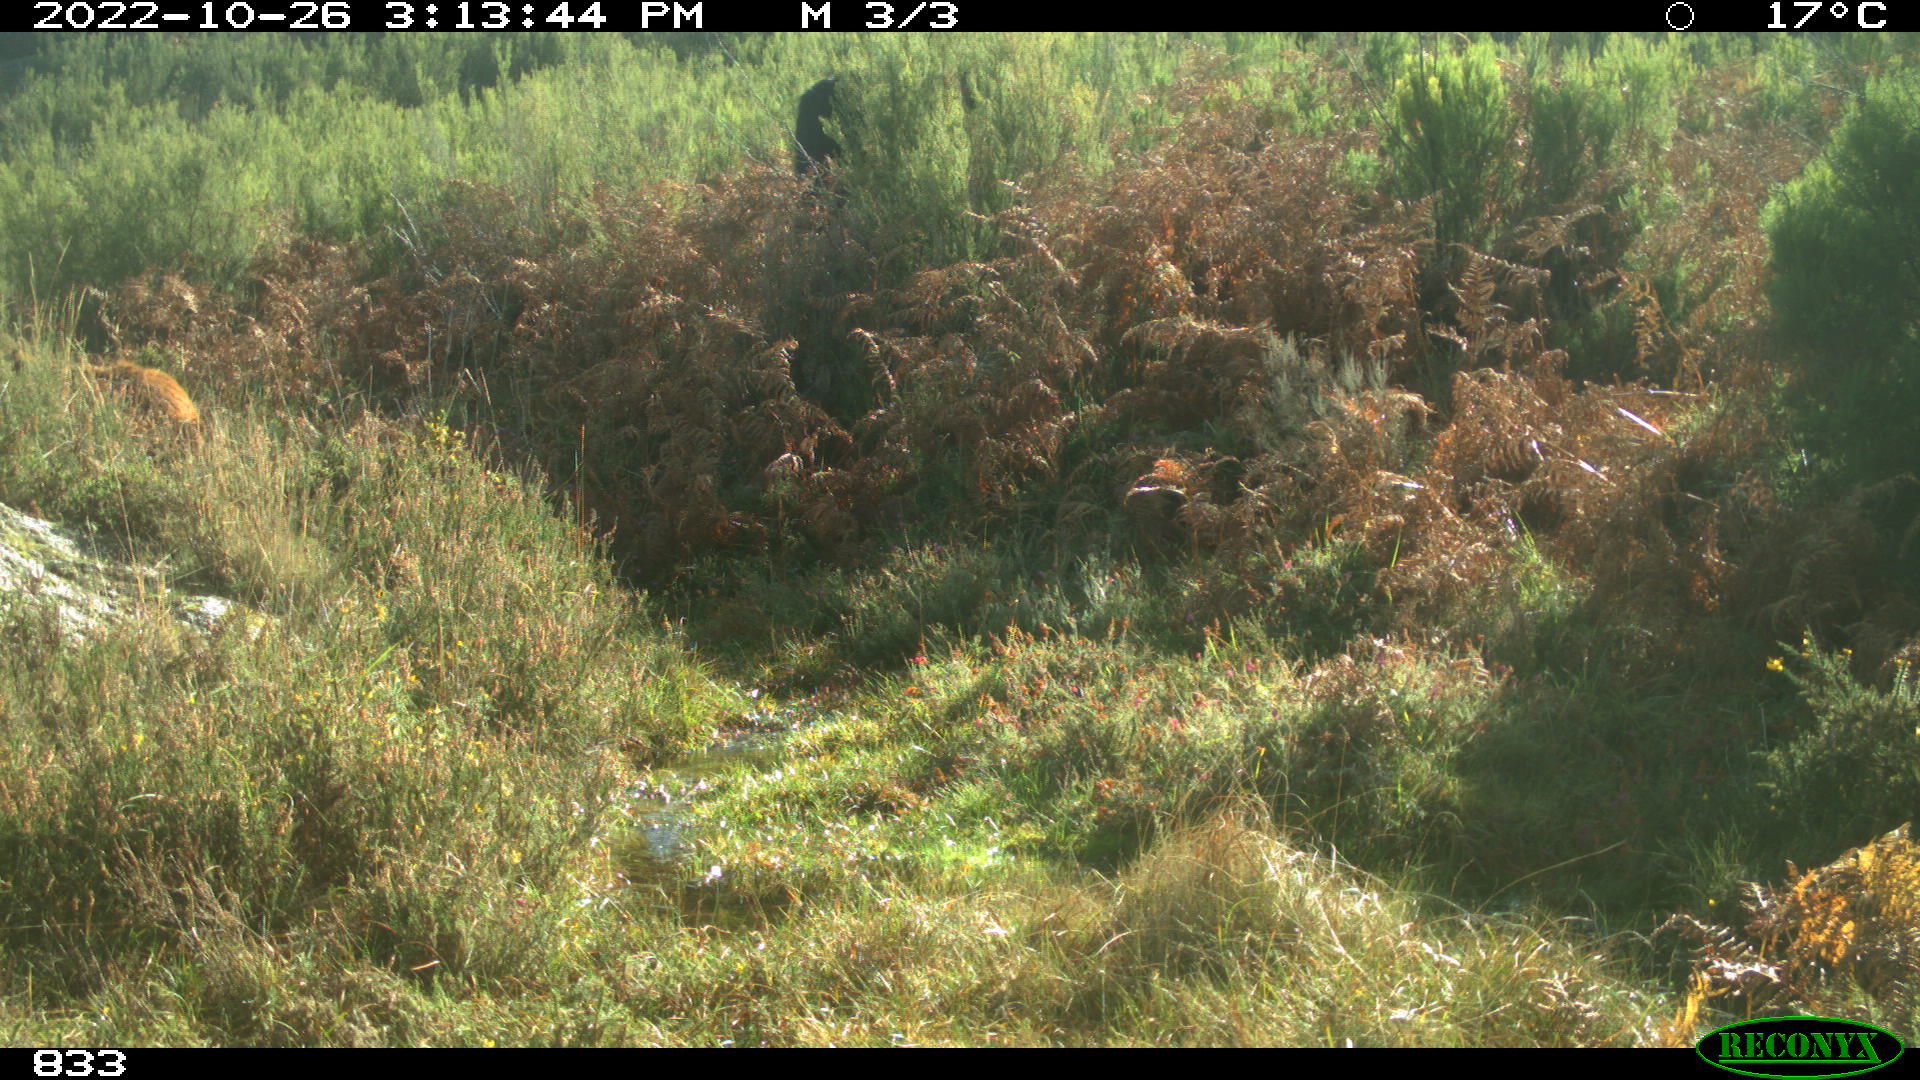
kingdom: Animalia
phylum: Chordata
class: Mammalia
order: Perissodactyla
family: Equidae
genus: Equus
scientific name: Equus caballus
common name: Horse
